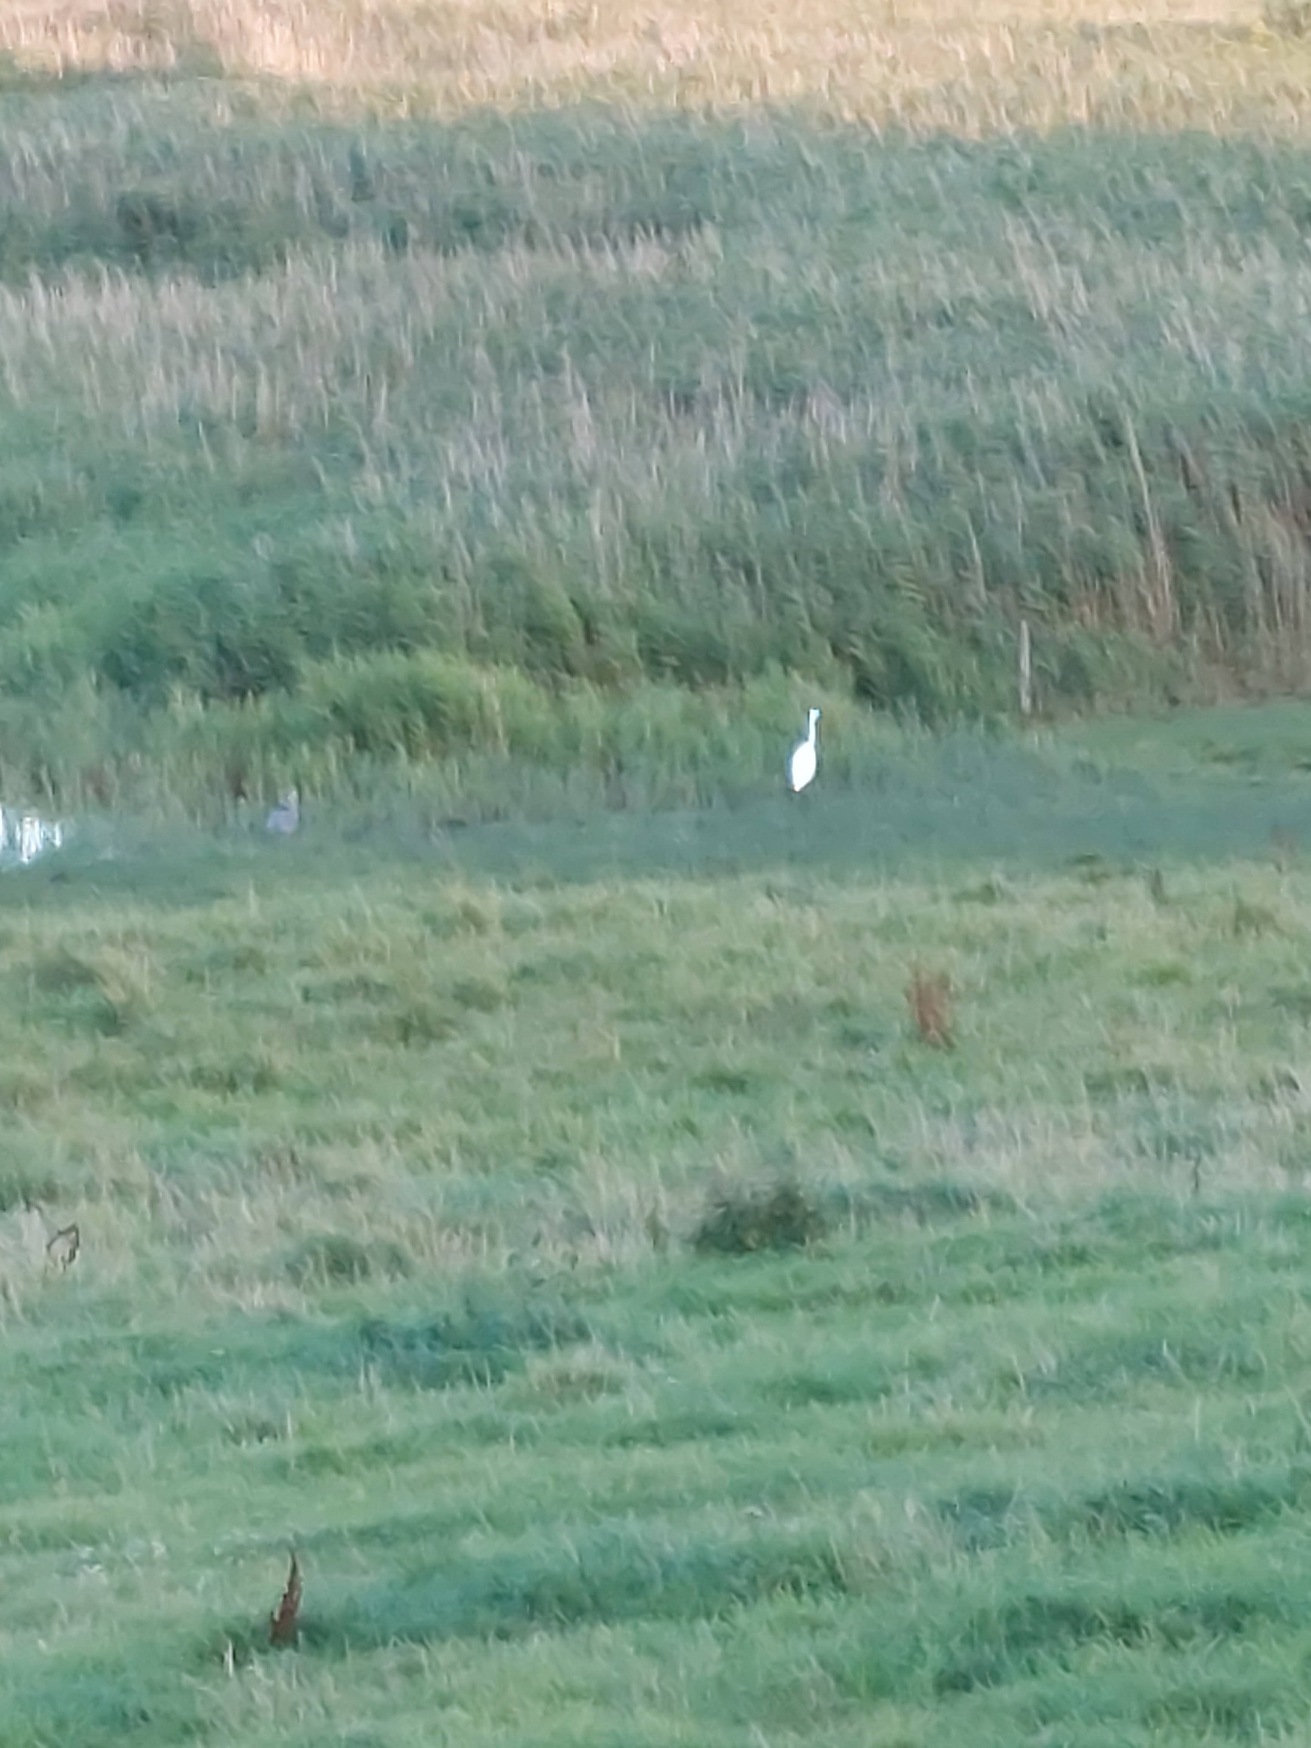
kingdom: Animalia
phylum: Chordata
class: Aves
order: Pelecaniformes
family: Ardeidae
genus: Ardea
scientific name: Ardea alba
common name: Sølvhejre
